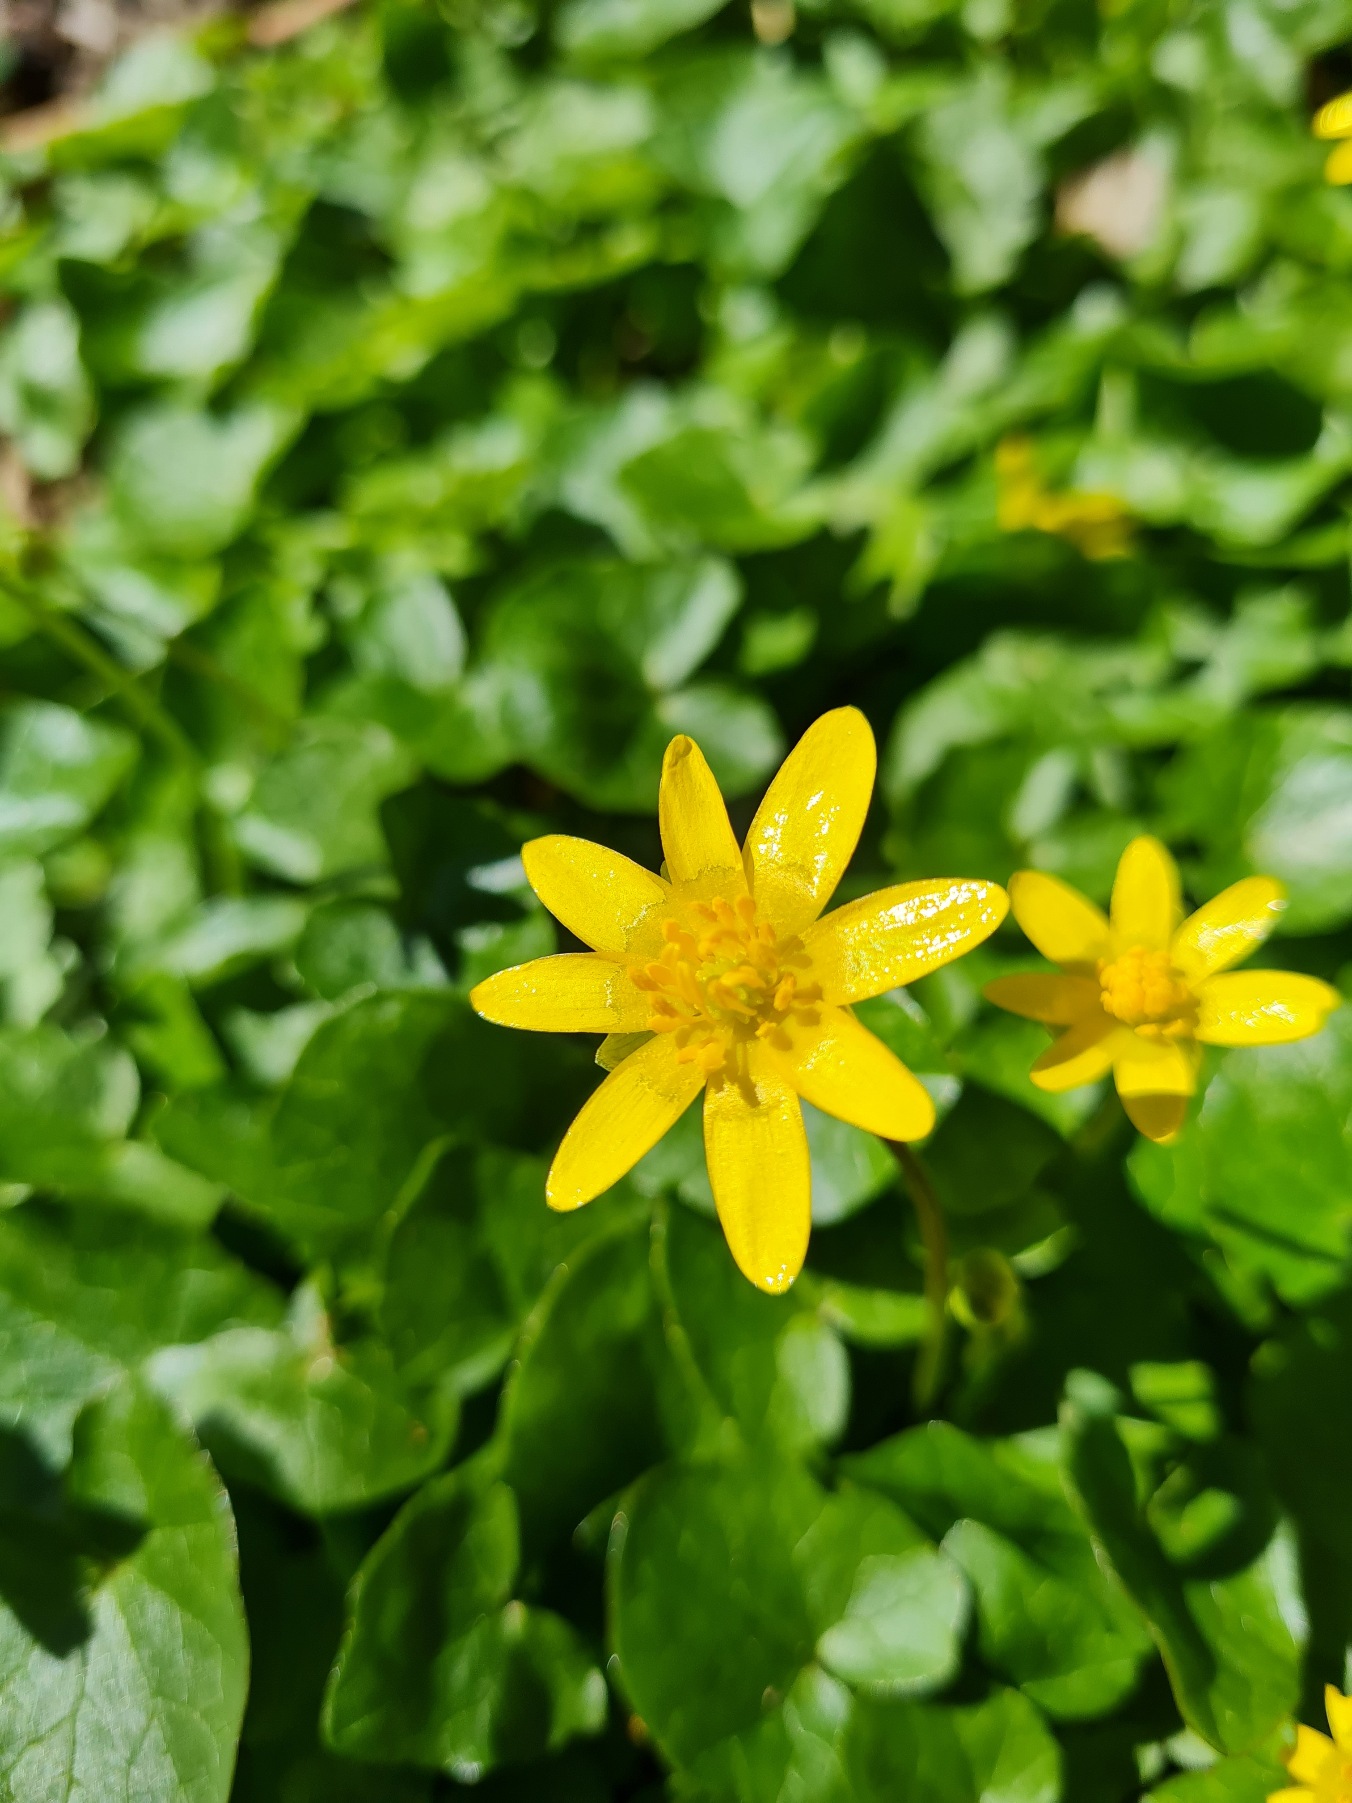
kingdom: Plantae
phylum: Tracheophyta
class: Magnoliopsida
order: Ranunculales
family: Ranunculaceae
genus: Ficaria
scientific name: Ficaria verna
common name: Vorterod
